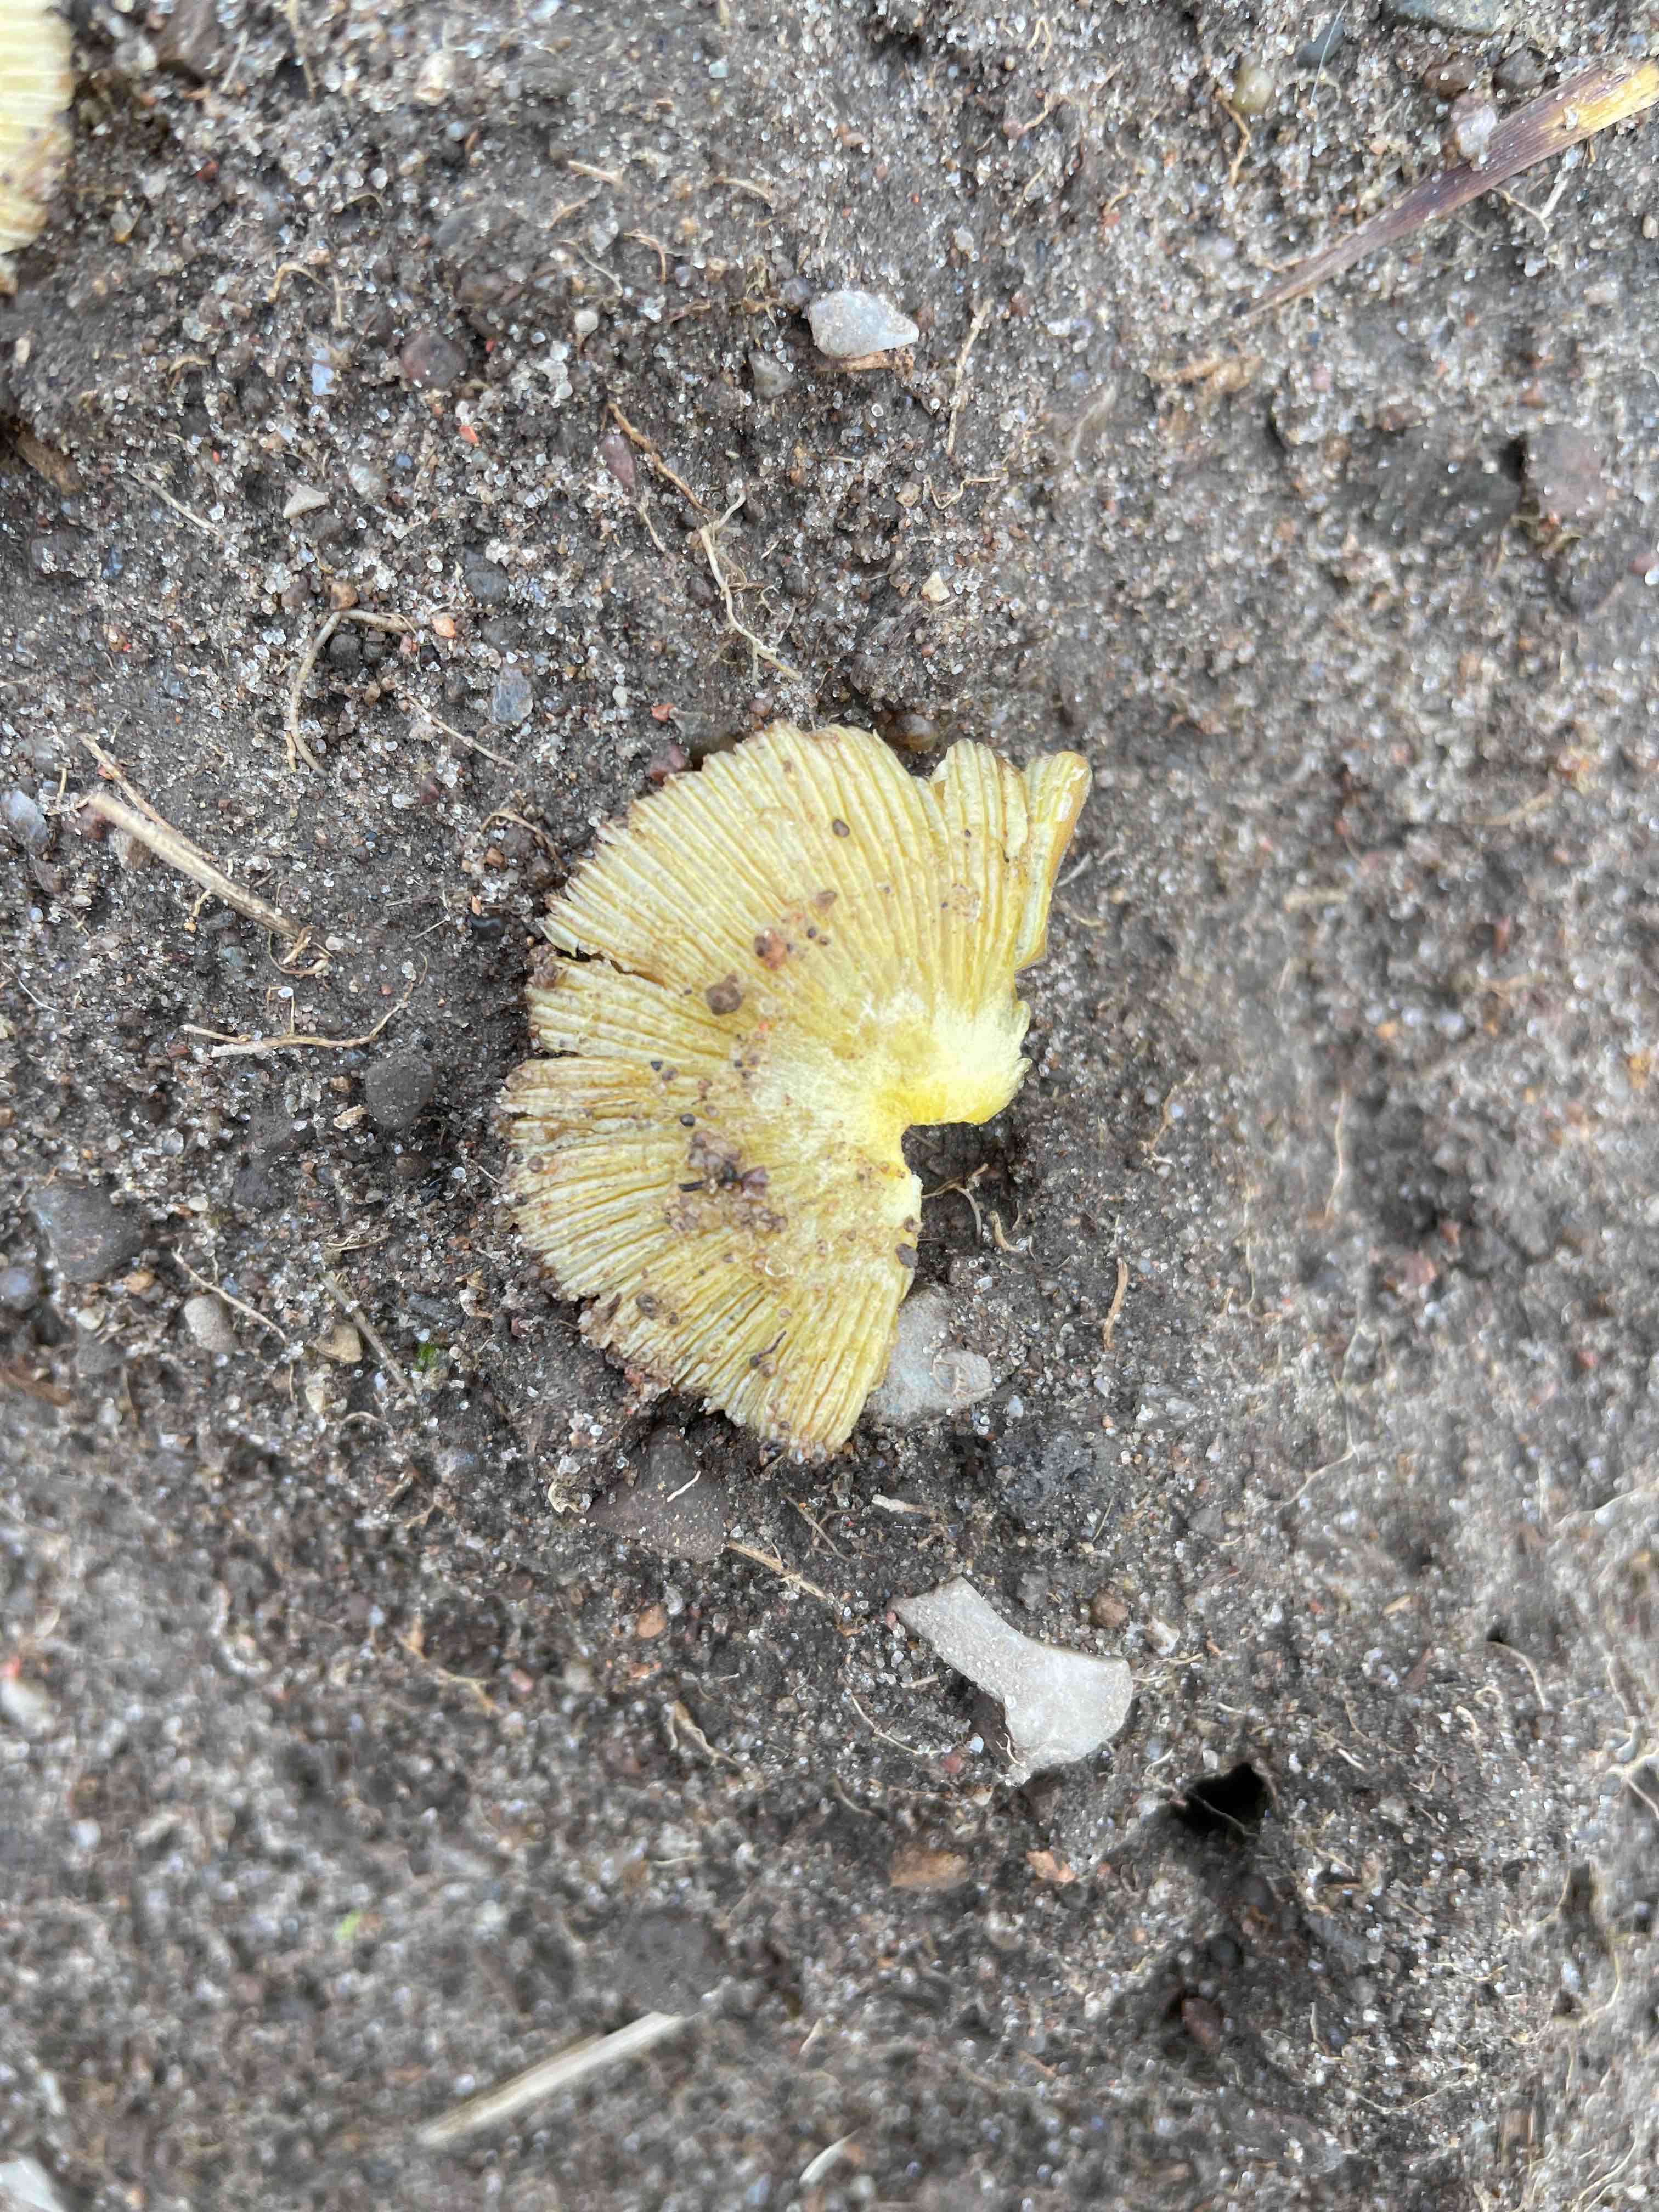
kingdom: Fungi
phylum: Basidiomycota
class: Agaricomycetes
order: Agaricales
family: Bolbitiaceae
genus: Bolbitius
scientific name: Bolbitius titubans
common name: almindelig gulhat
